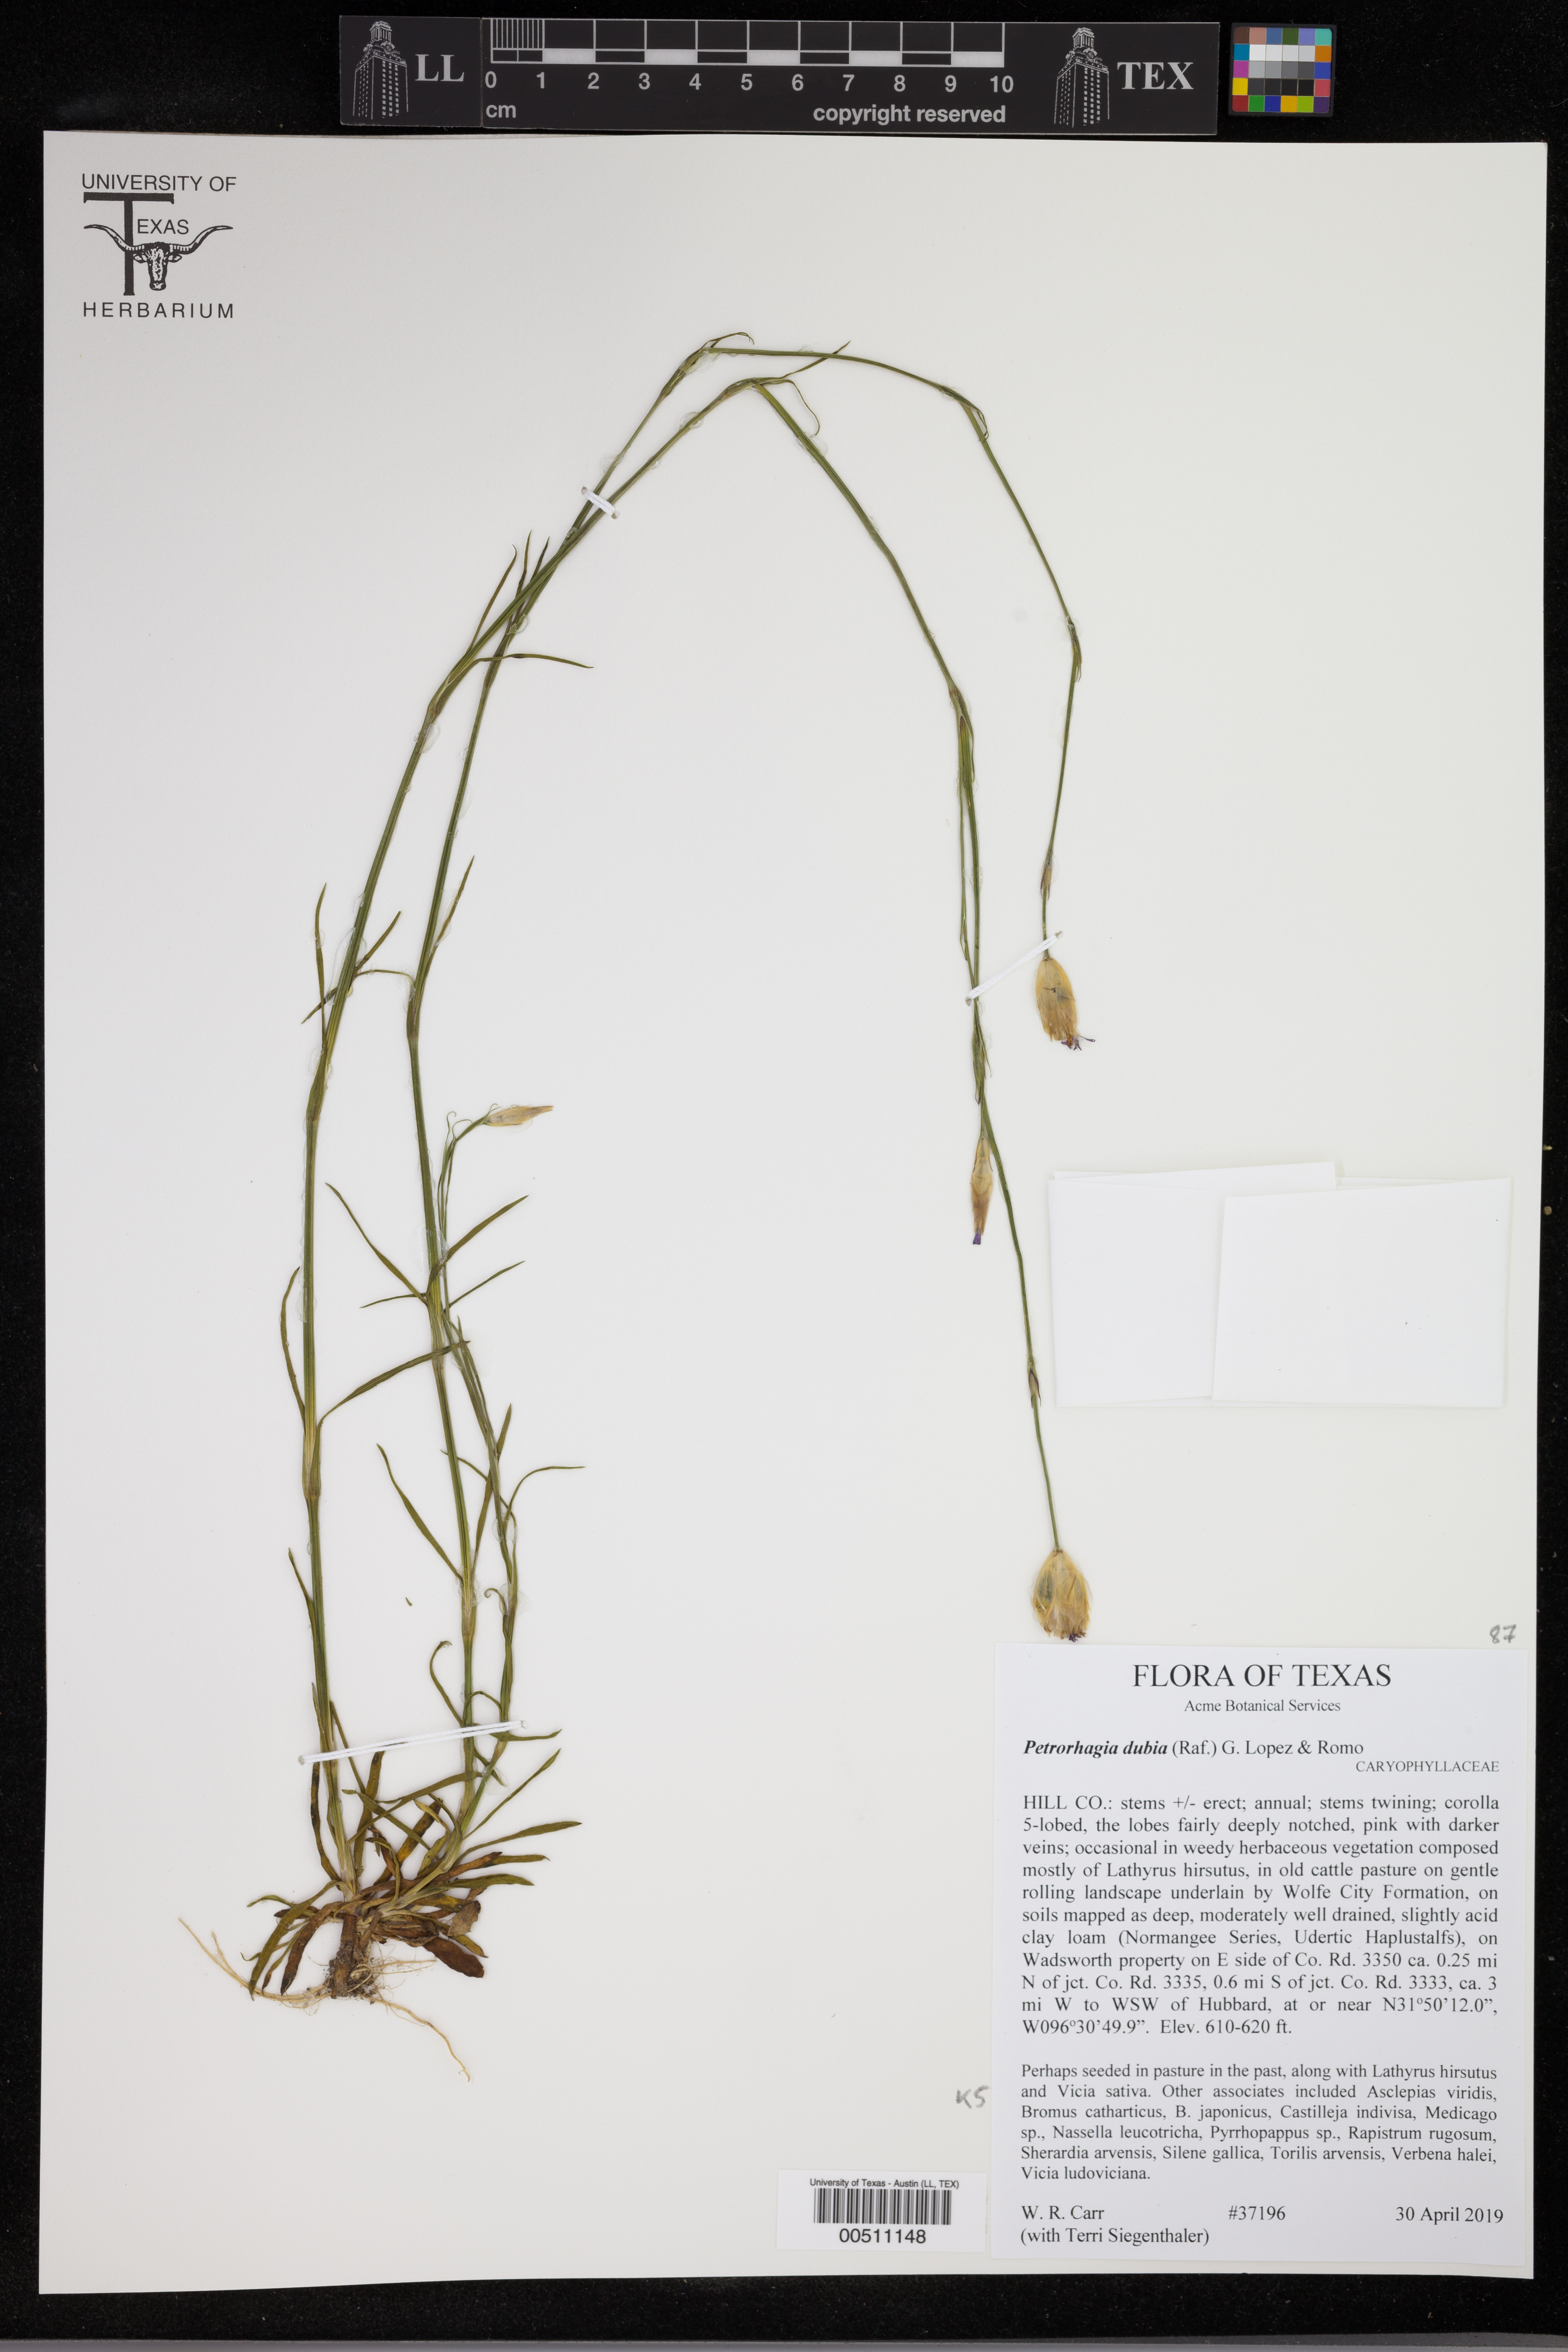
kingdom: Plantae
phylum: Tracheophyta
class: Magnoliopsida
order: Caryophyllales
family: Caryophyllaceae
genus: Petrorhagia
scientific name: Petrorhagia dubia
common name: Hairypink
